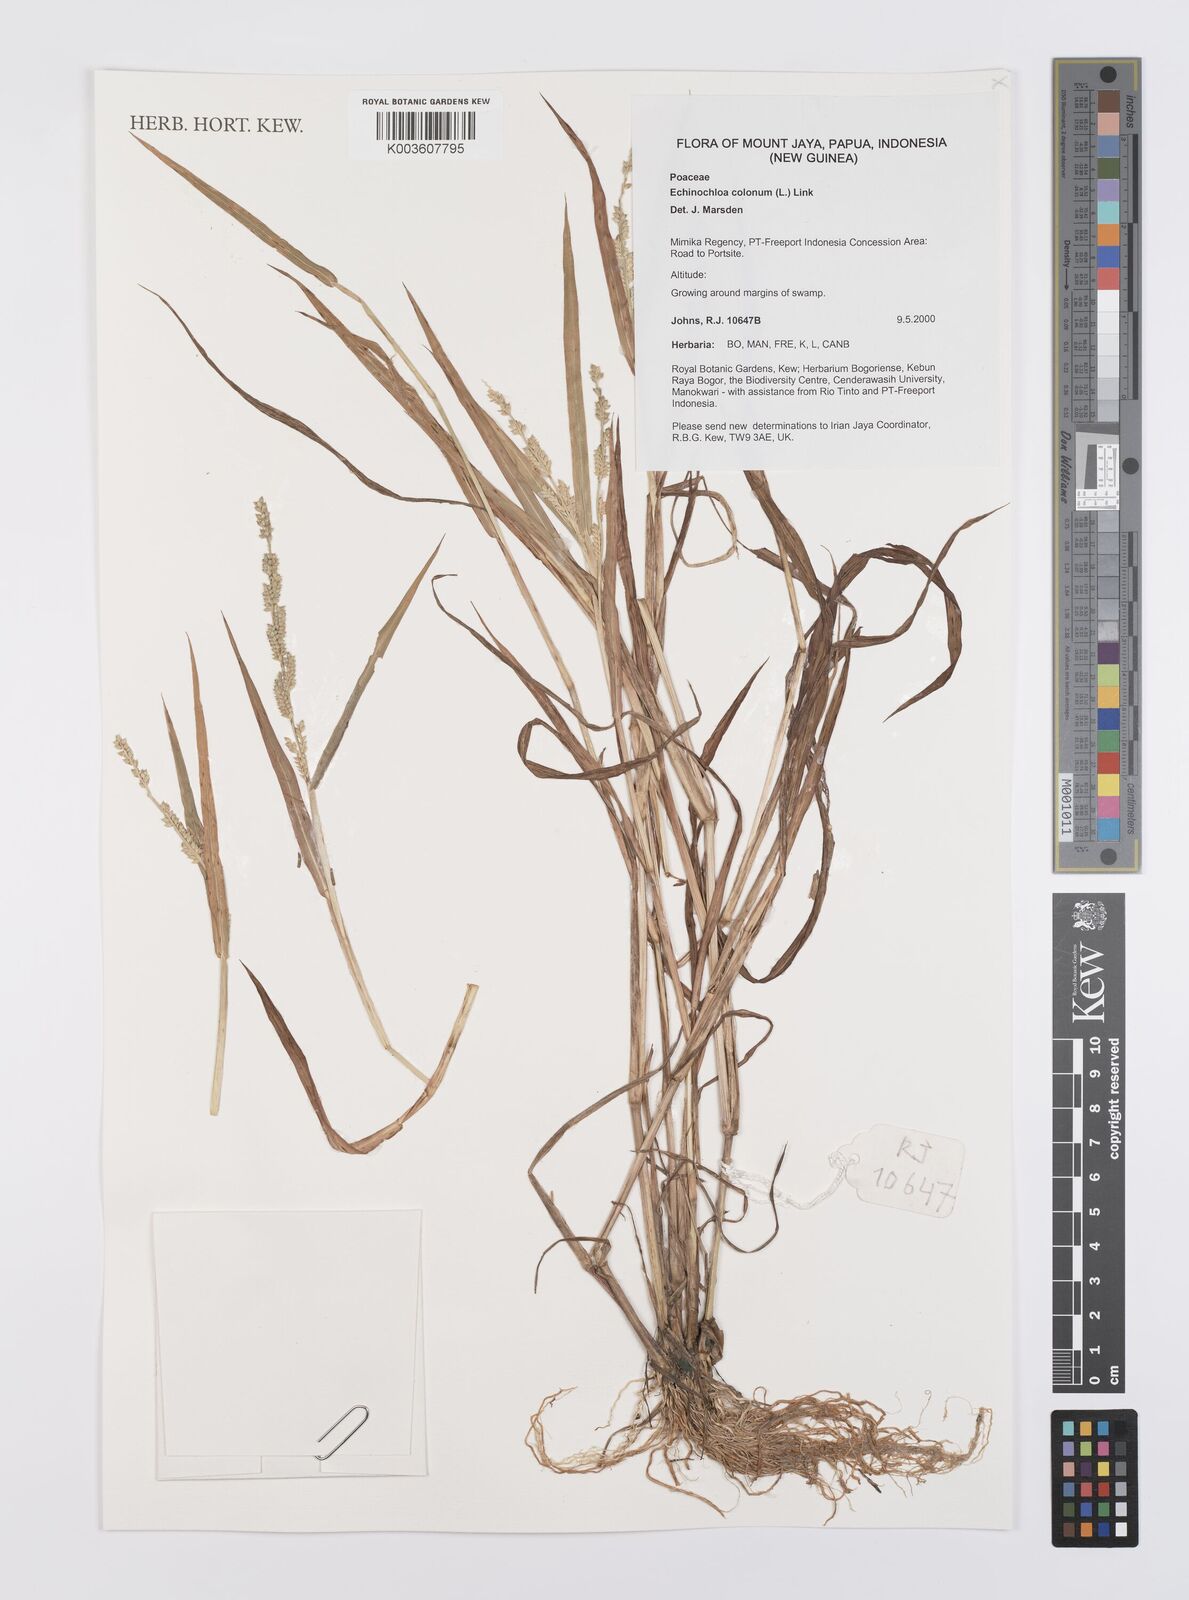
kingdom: Plantae
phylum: Tracheophyta
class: Liliopsida
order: Poales
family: Poaceae
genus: Echinochloa
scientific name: Echinochloa colonum
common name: Jungle rice
